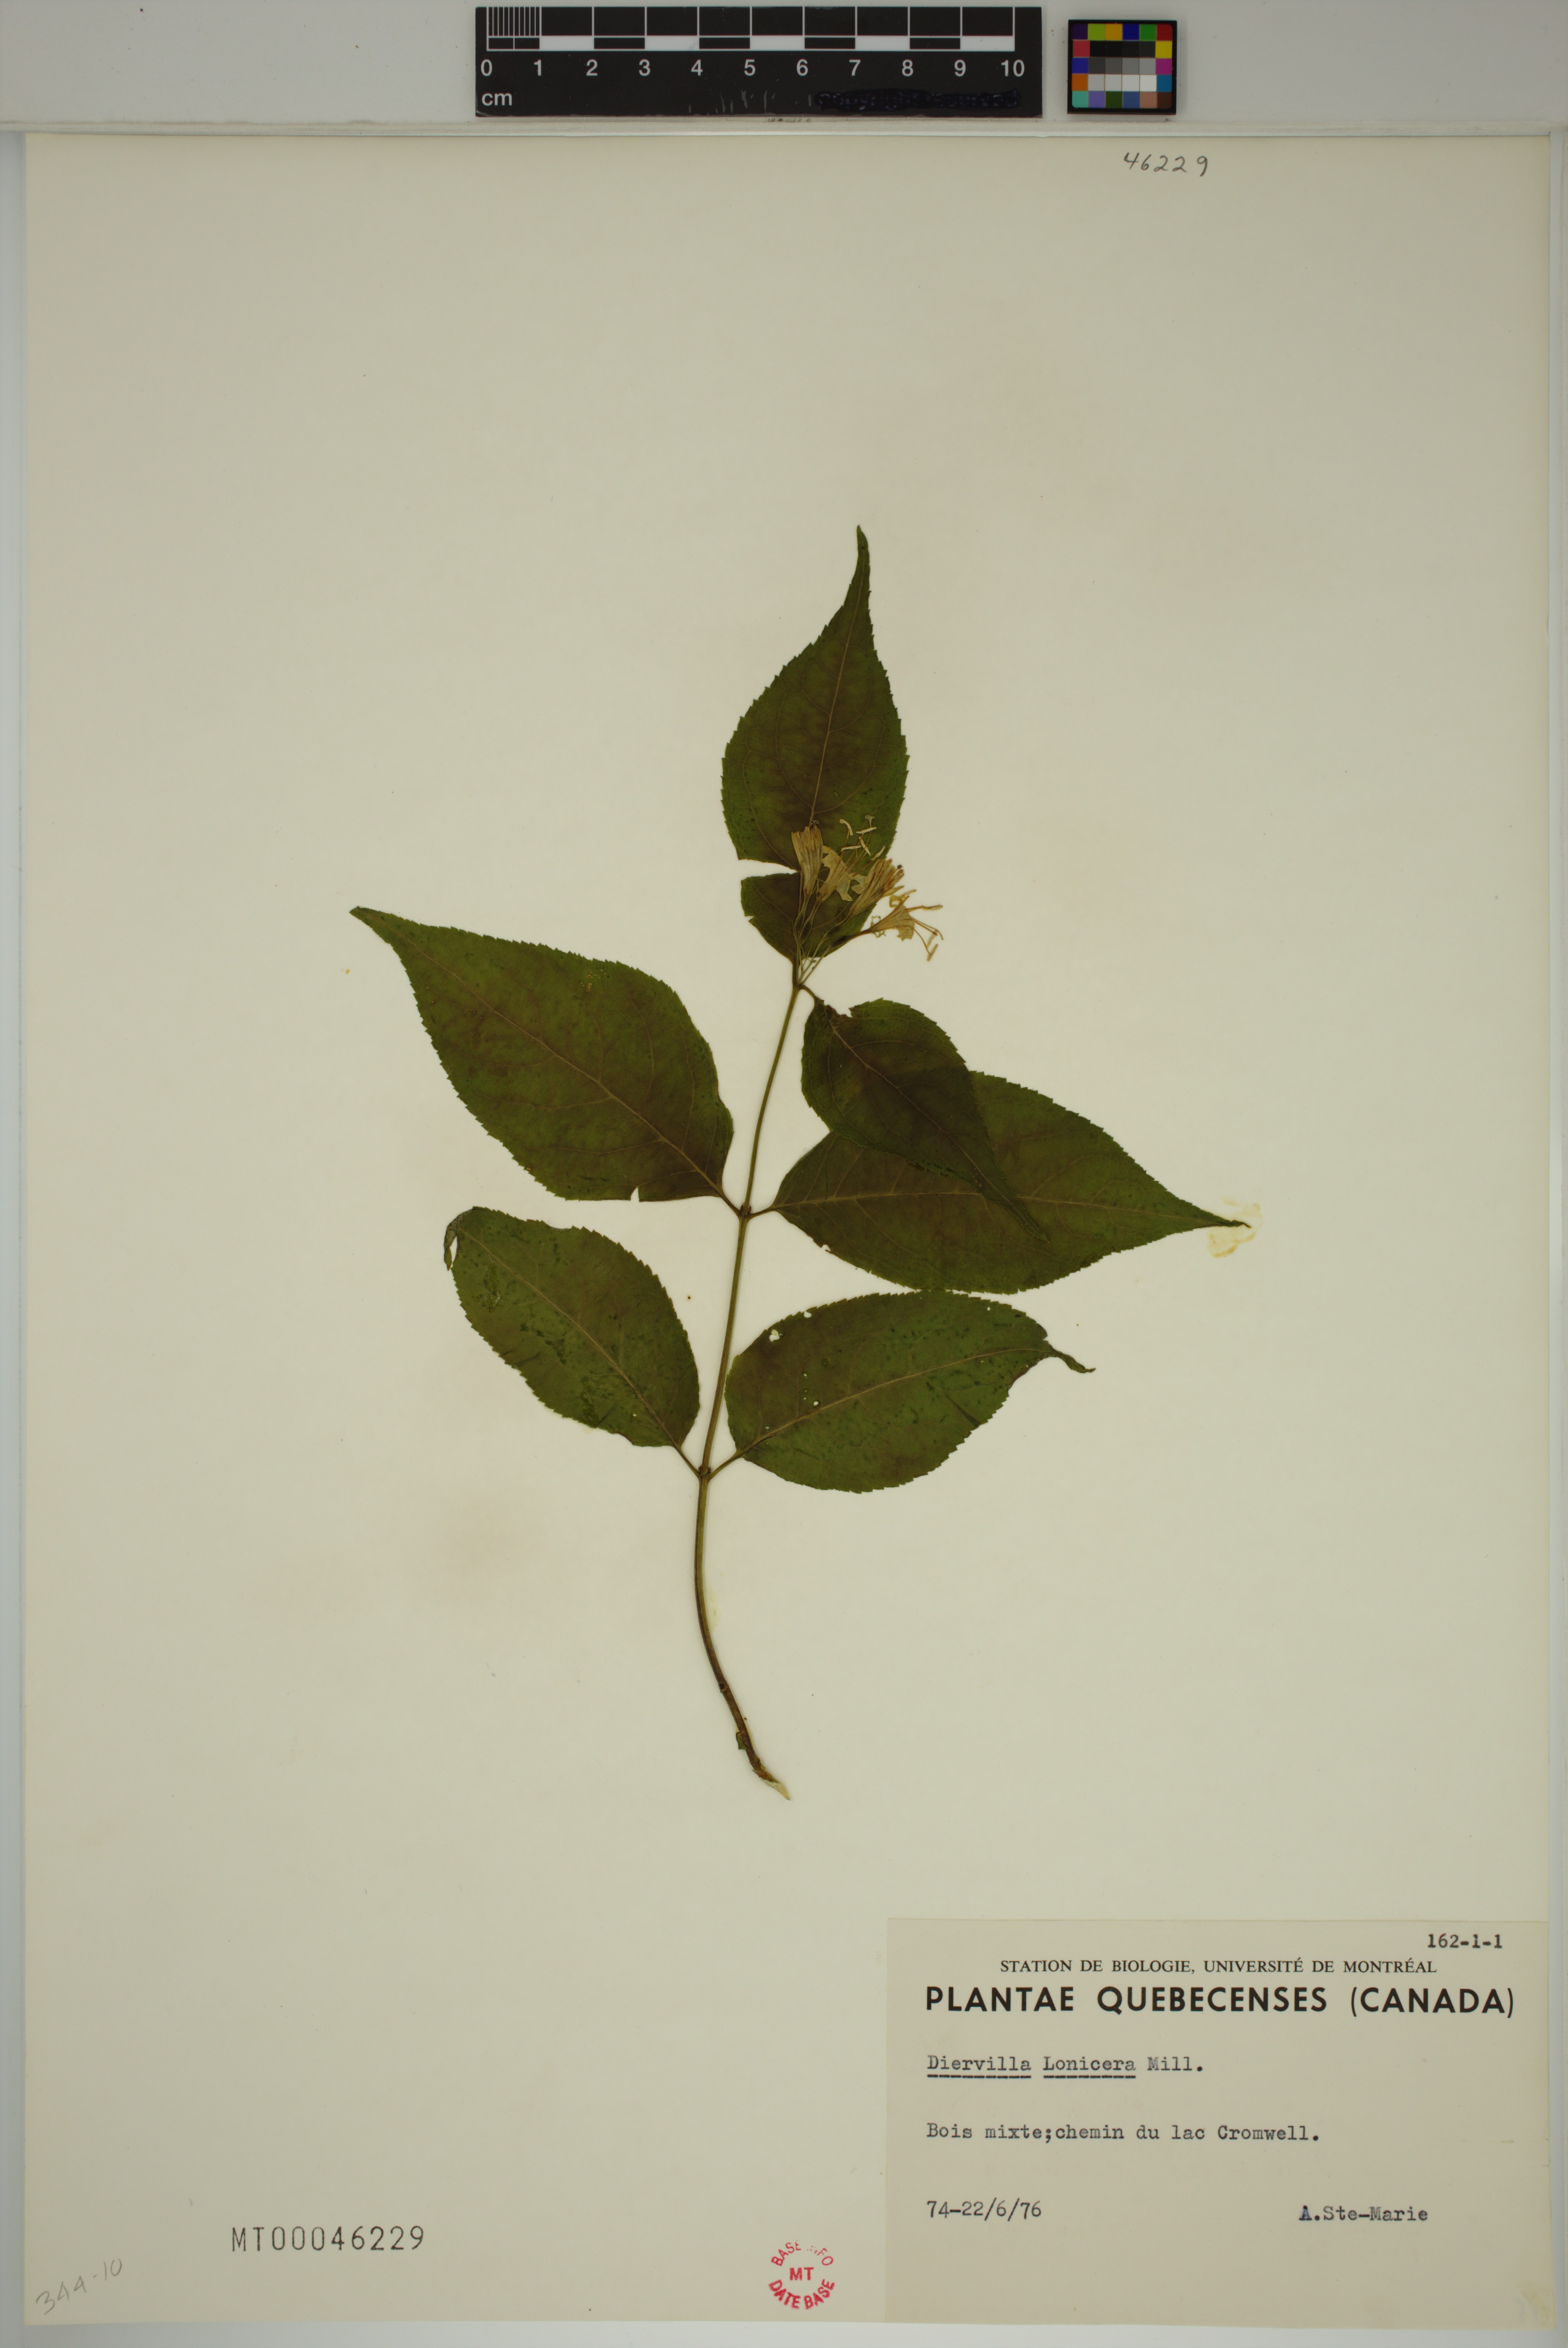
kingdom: Plantae
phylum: Tracheophyta
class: Magnoliopsida
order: Dipsacales
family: Caprifoliaceae
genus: Diervilla
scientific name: Diervilla lonicera
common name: Bush-honeysuckle
